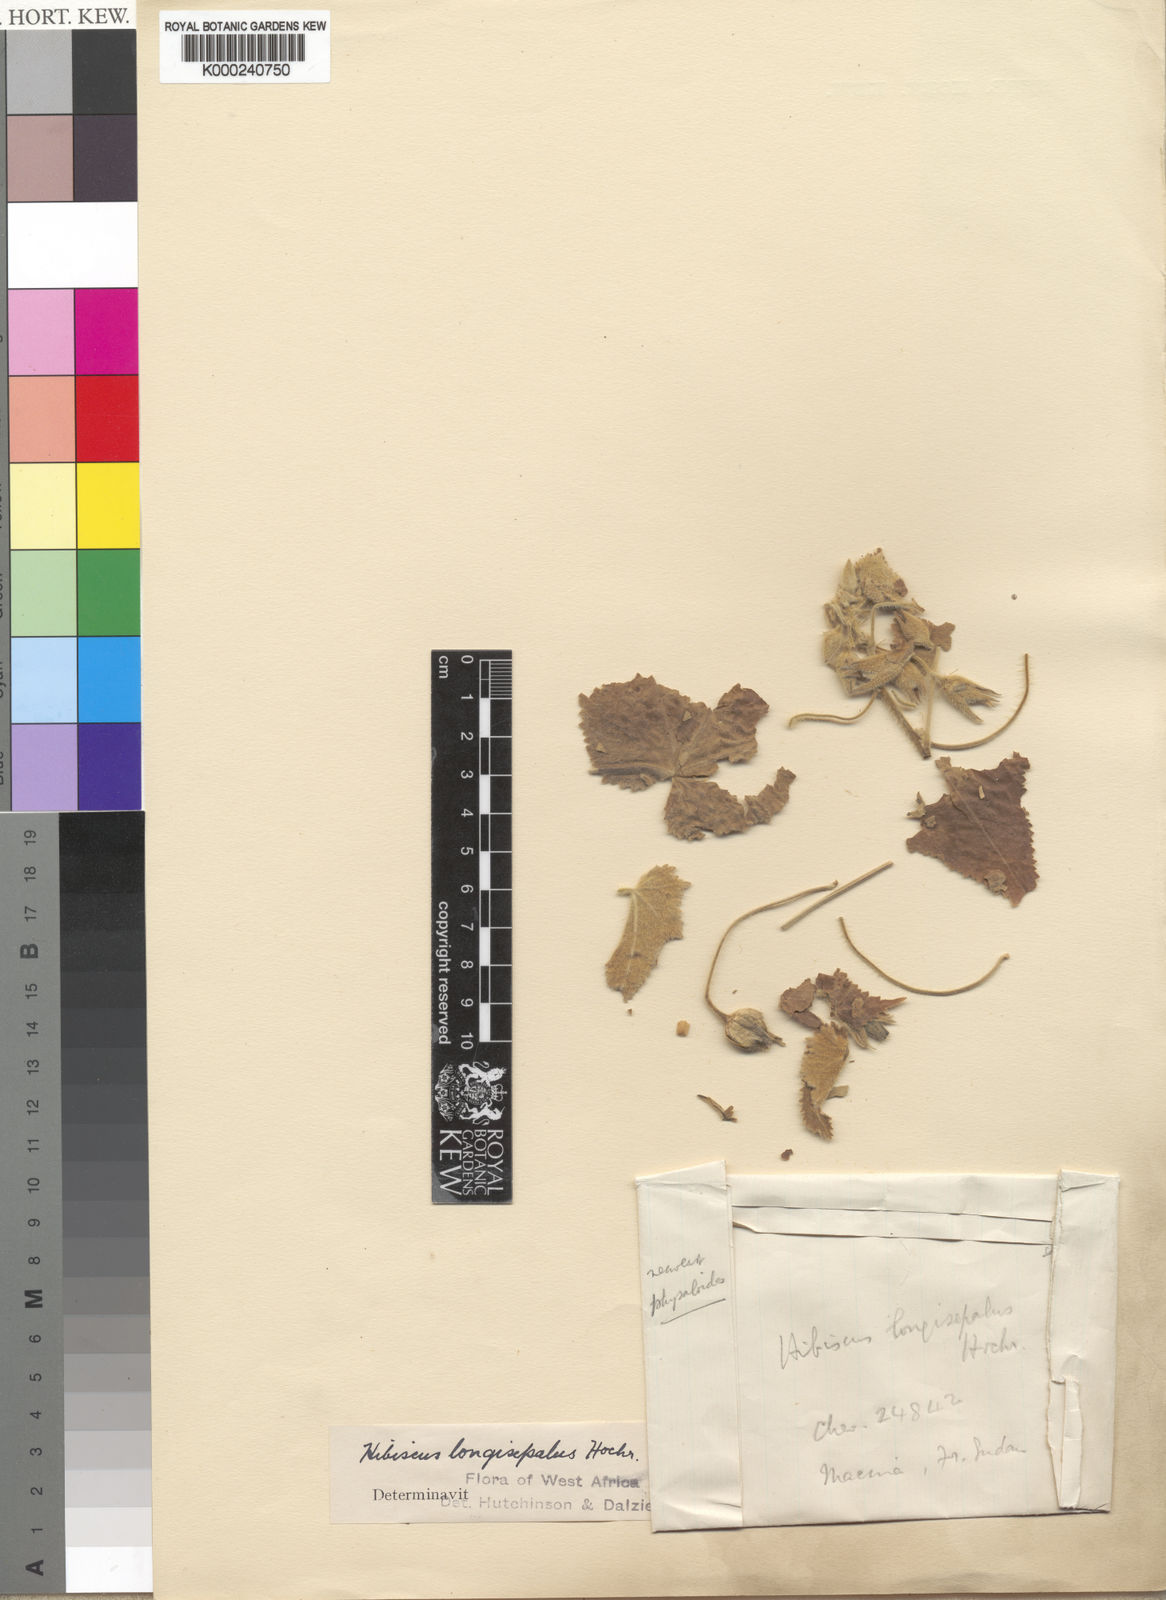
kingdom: Plantae
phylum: Tracheophyta
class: Magnoliopsida
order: Malvales
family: Malvaceae
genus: Hibiscus
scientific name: Hibiscus longisepalus
